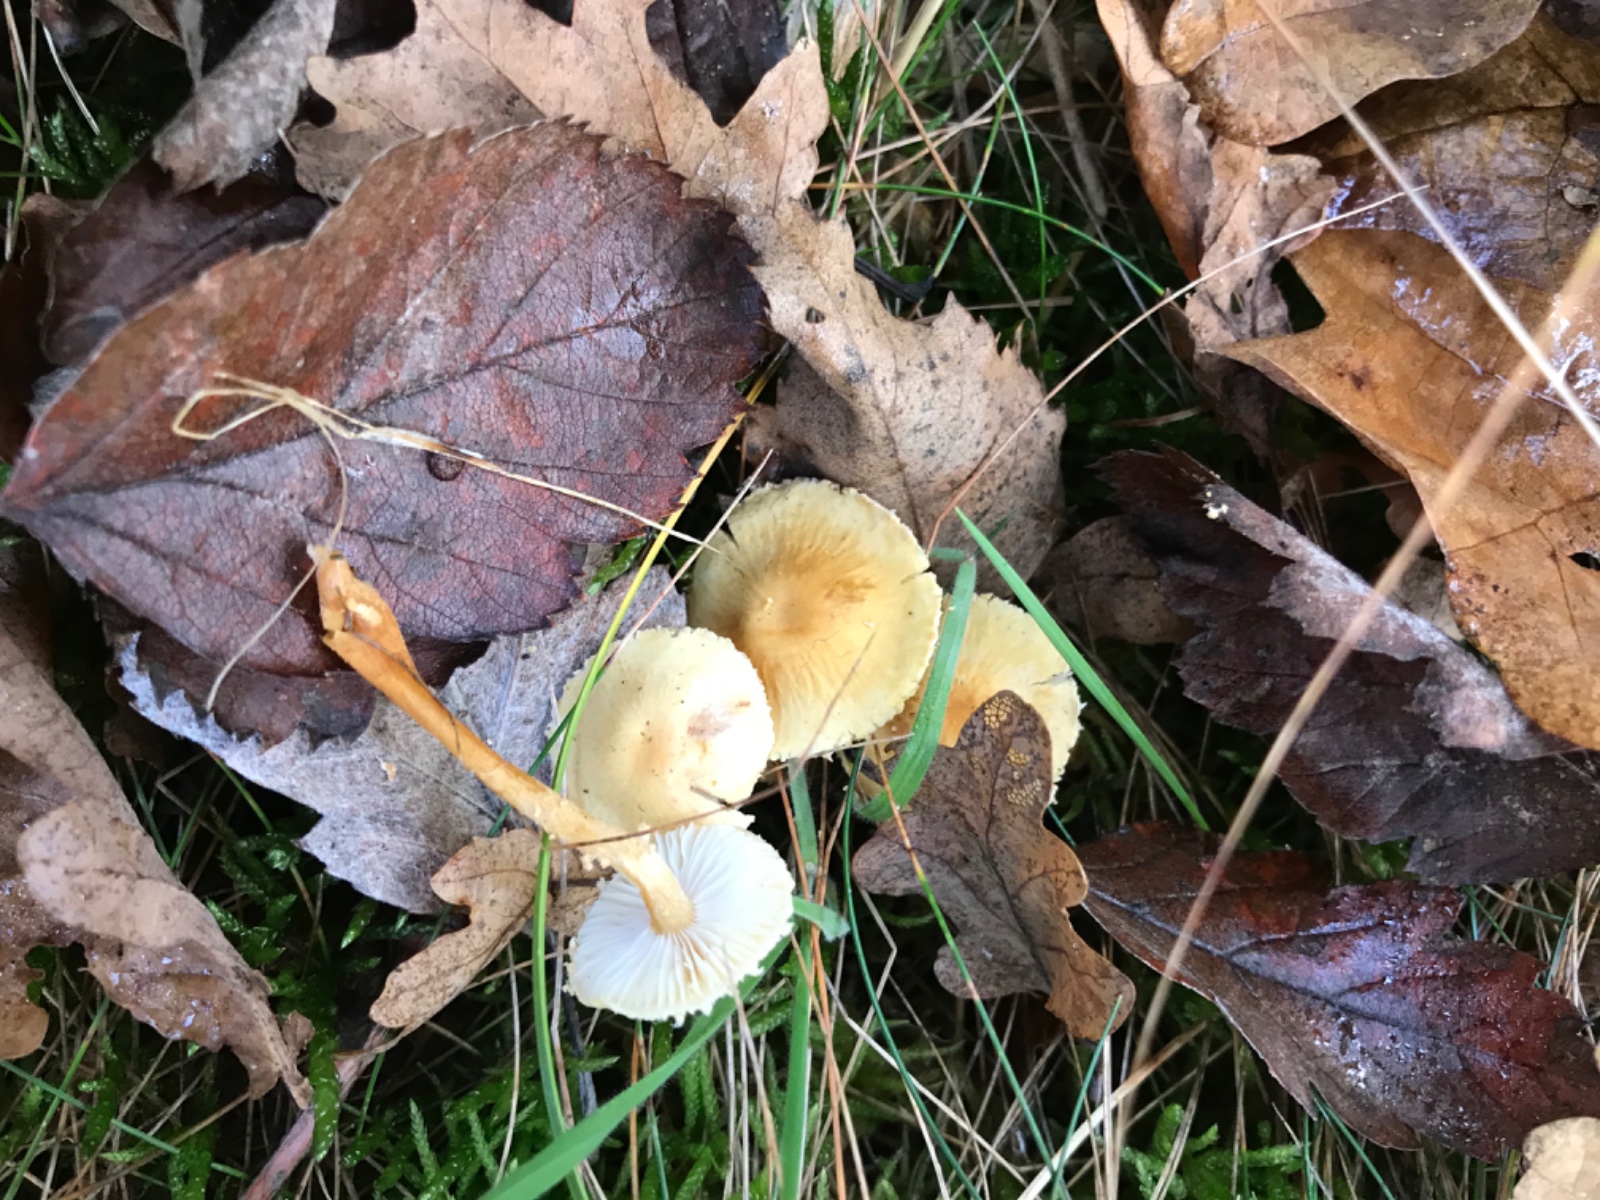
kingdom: Fungi
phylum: Basidiomycota
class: Agaricomycetes
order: Agaricales
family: Tricholomataceae
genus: Cystoderma
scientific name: Cystoderma amianthinum
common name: okkergul grynhat
